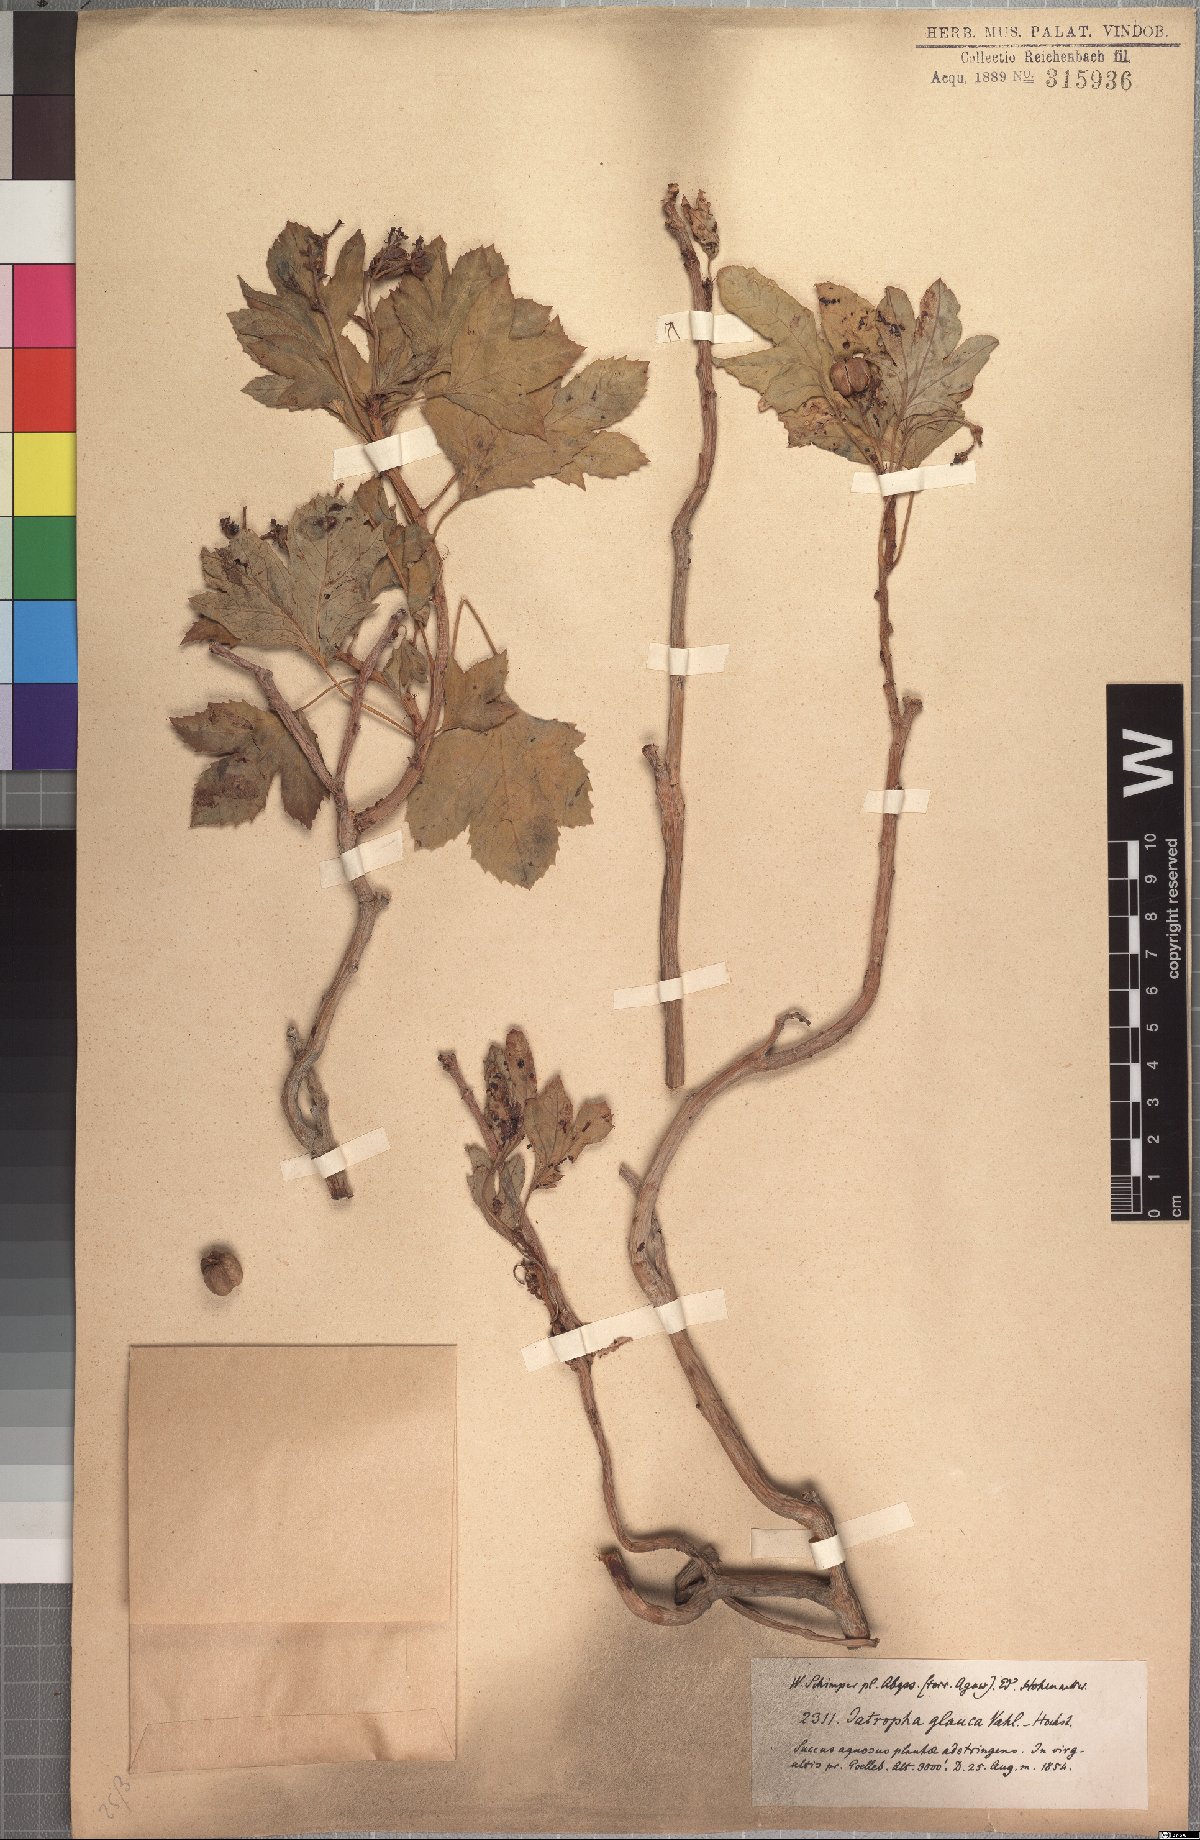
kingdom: Plantae
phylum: Tracheophyta
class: Magnoliopsida
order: Malpighiales
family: Euphorbiaceae
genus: Jatropha
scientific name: Jatropha glauca
